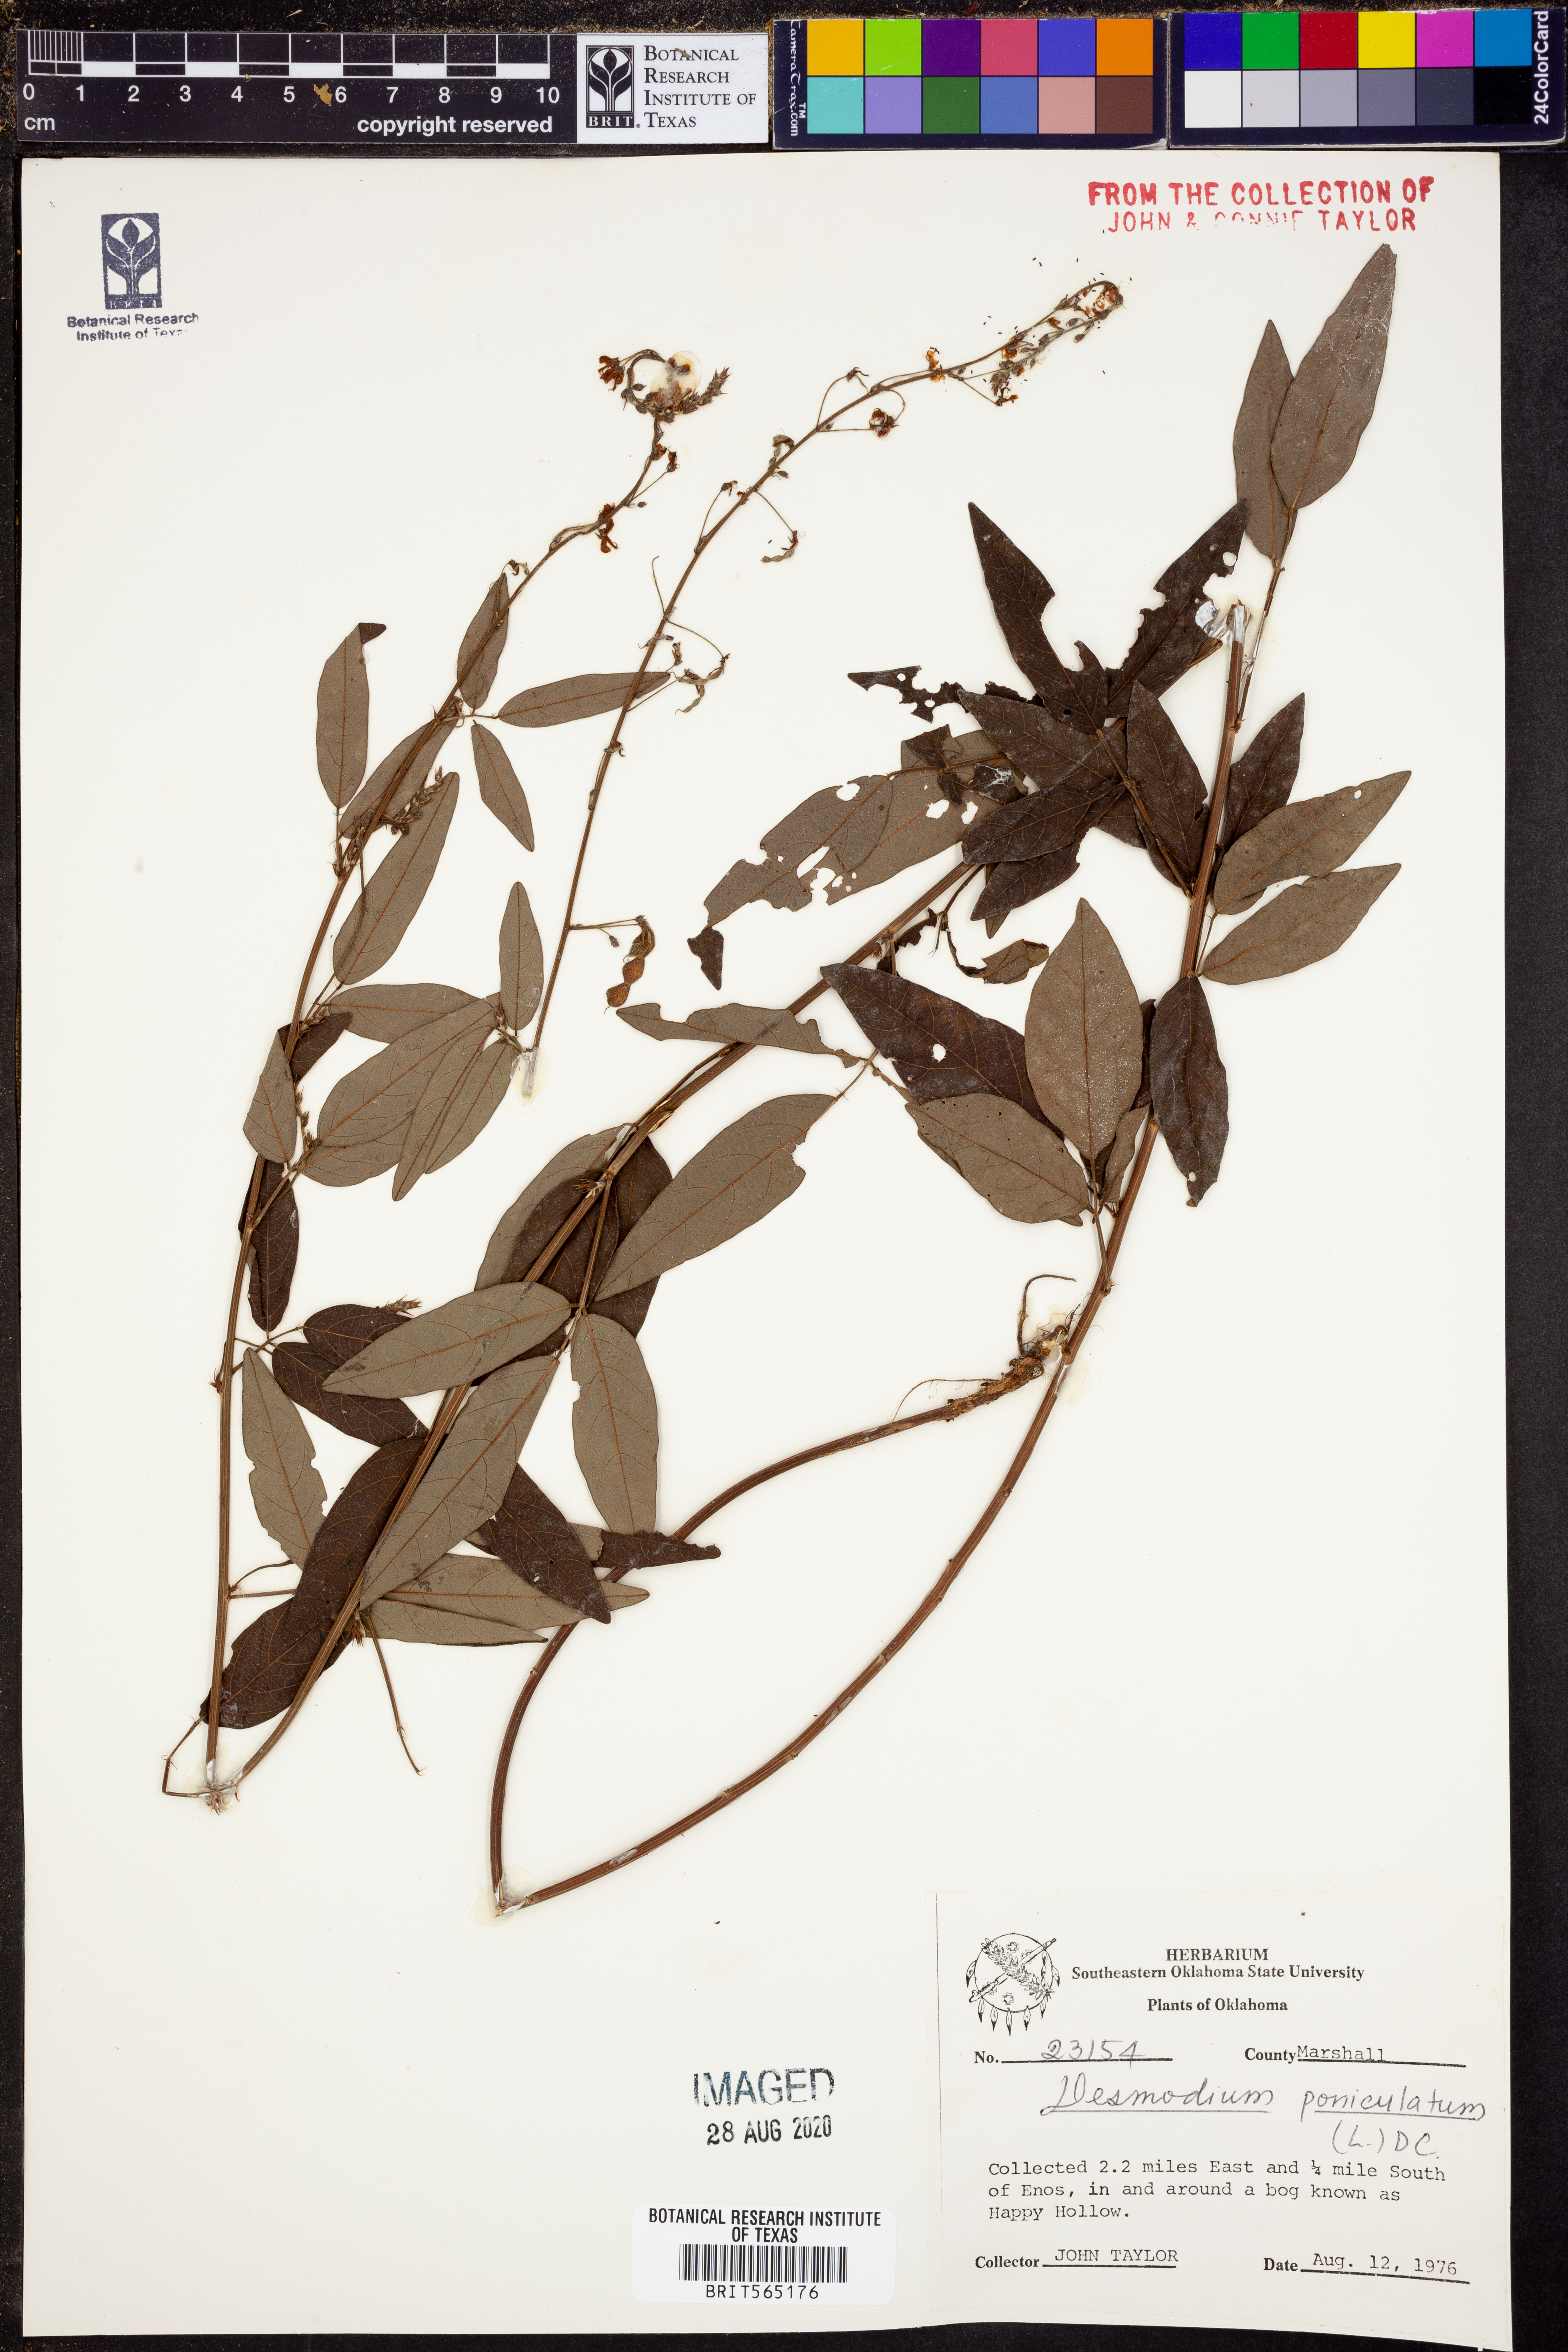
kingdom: Plantae
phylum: Tracheophyta
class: Magnoliopsida
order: Fabales
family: Fabaceae
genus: Desmodium
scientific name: Desmodium paniculatum
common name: Panicled tick-clover
